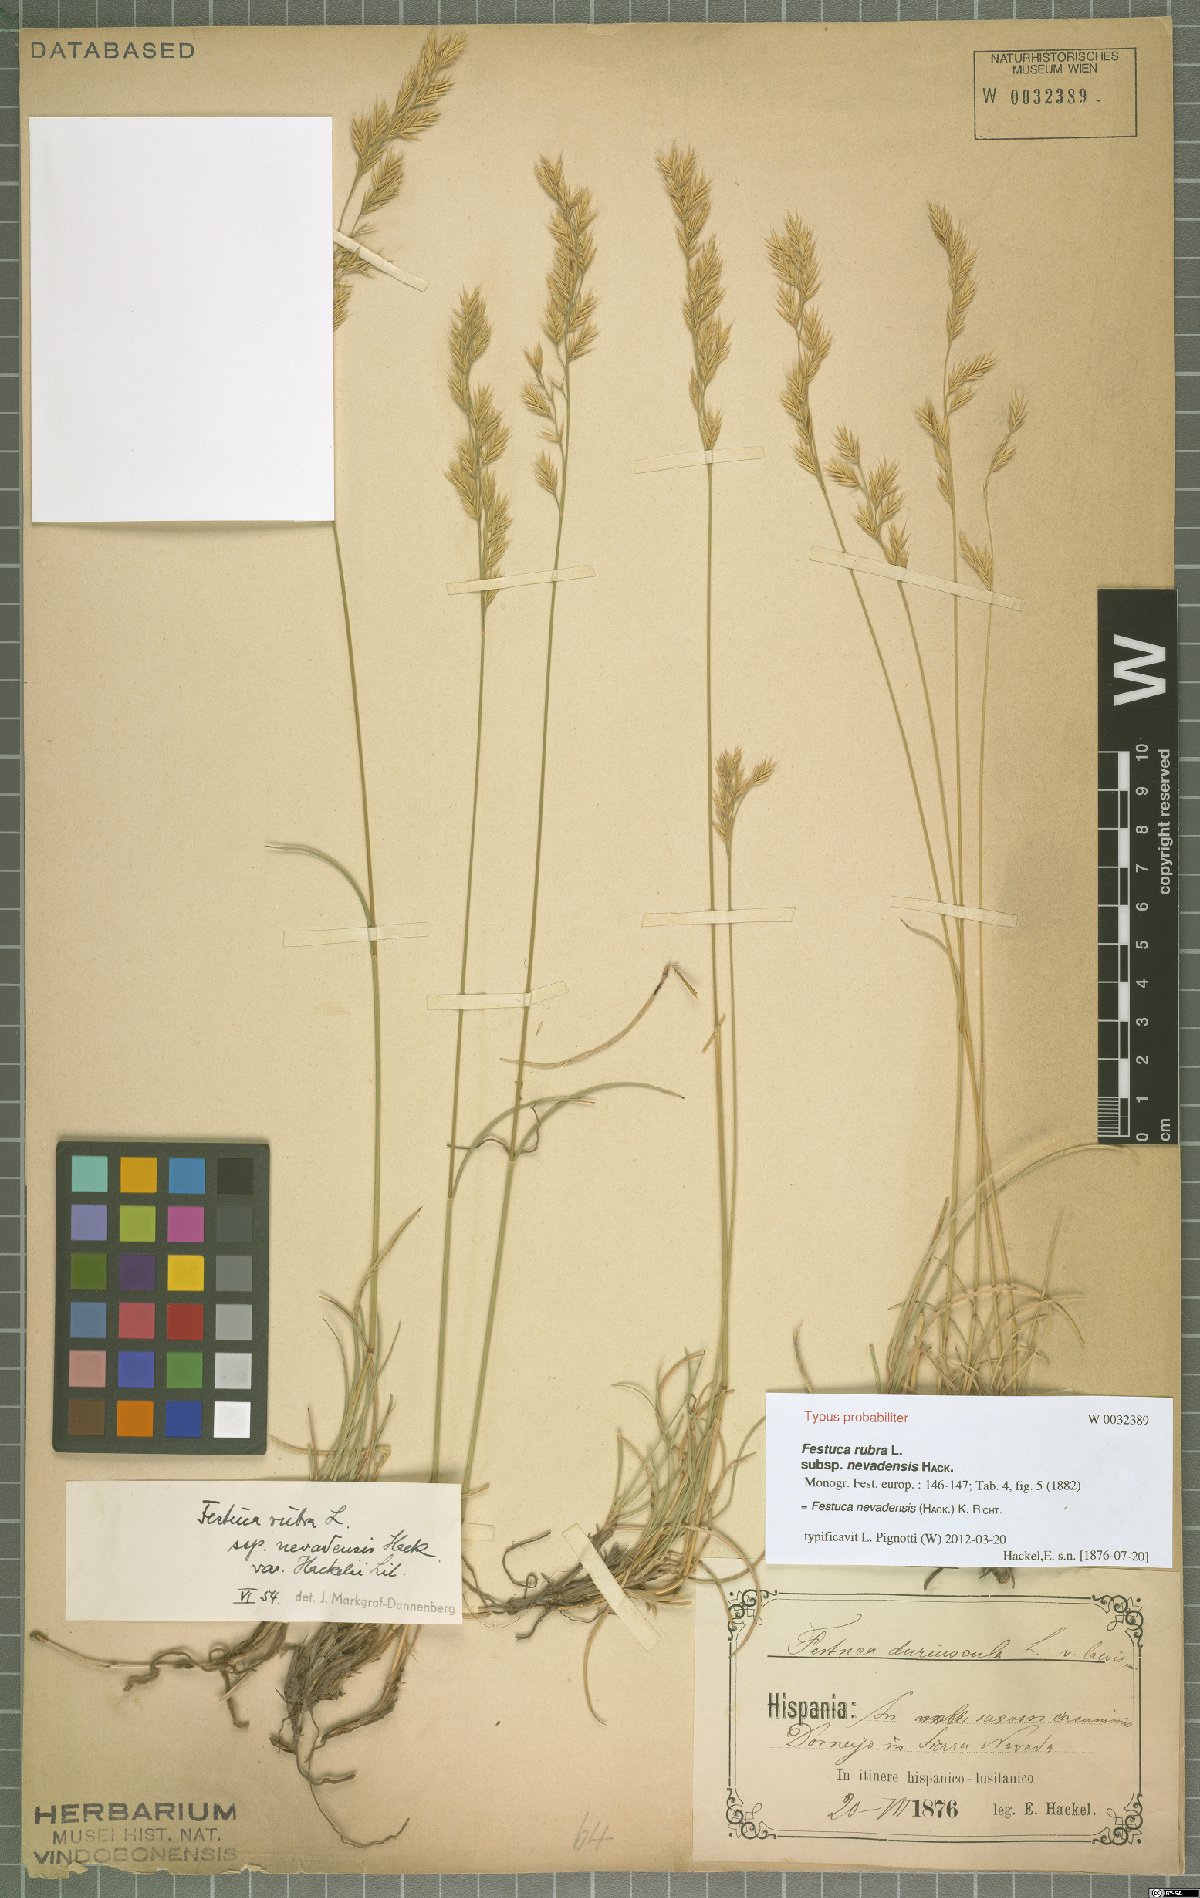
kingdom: Plantae
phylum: Tracheophyta
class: Liliopsida
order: Poales
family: Poaceae
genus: Festuca
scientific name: Festuca nevadensis
